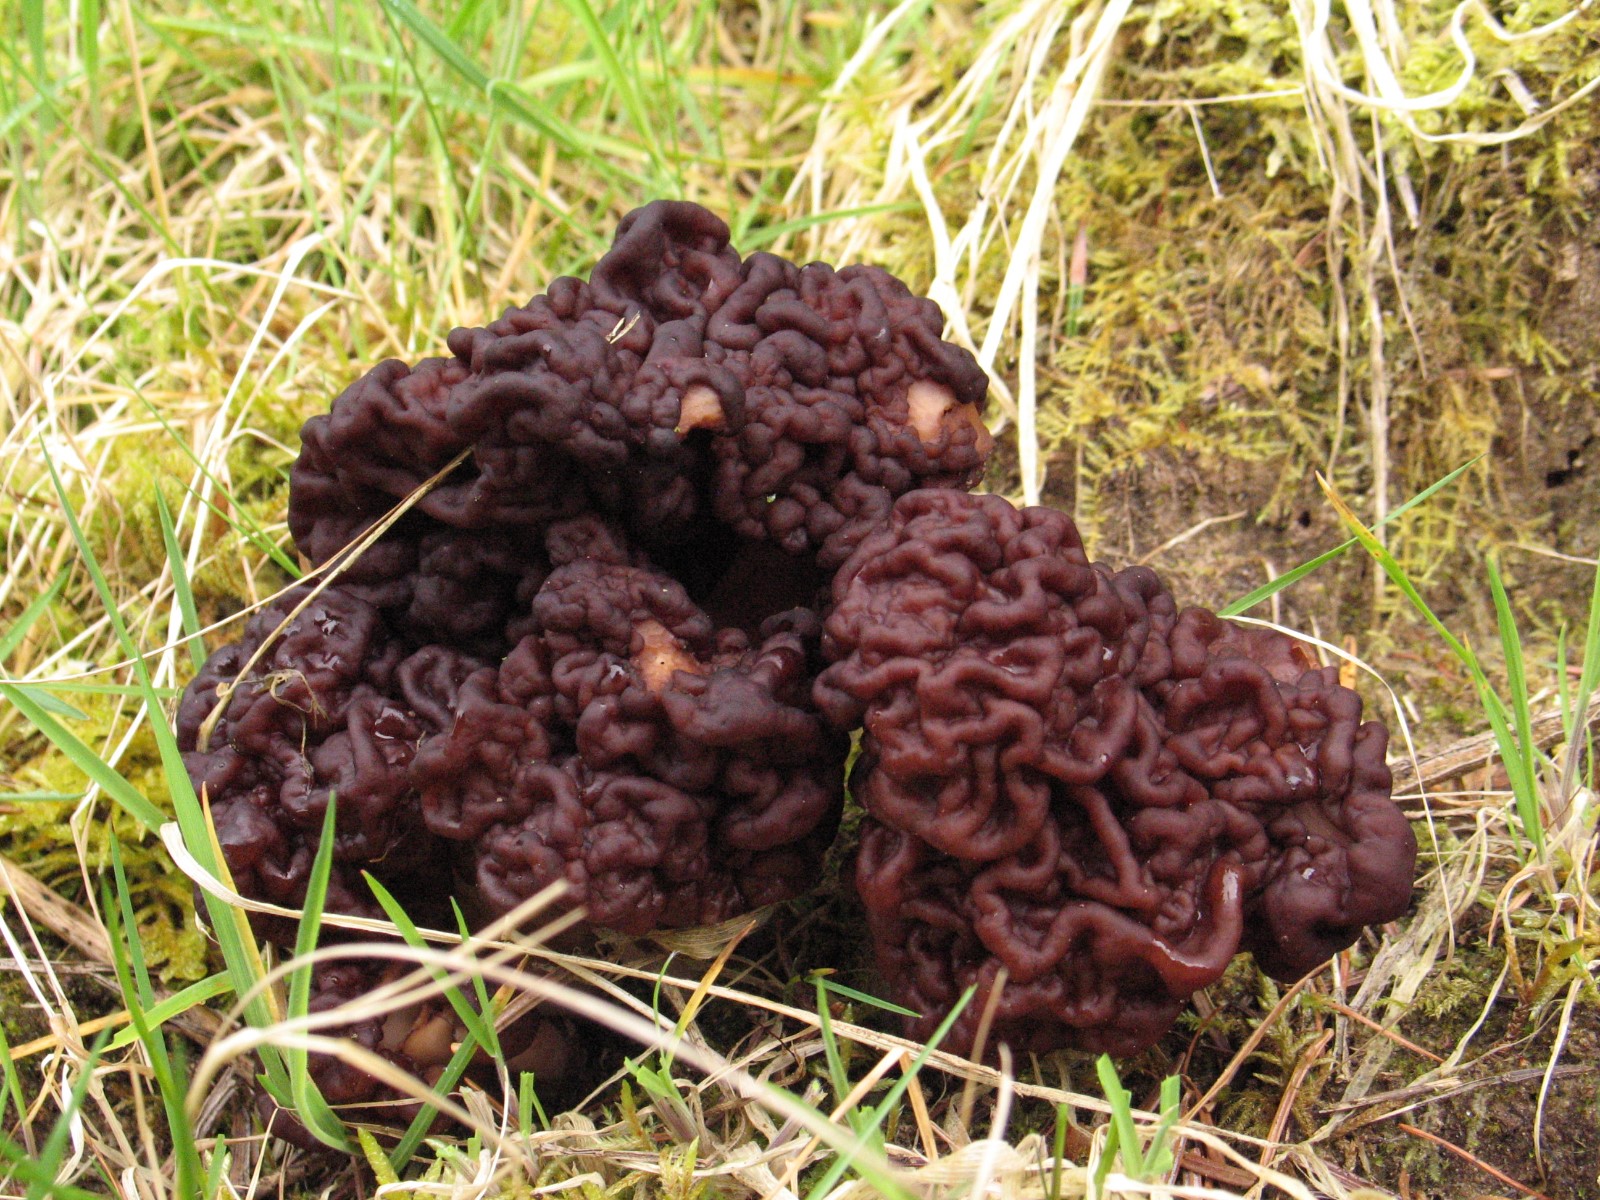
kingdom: Fungi
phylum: Ascomycota
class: Pezizomycetes
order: Pezizales
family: Discinaceae
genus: Gyromitra
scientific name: Gyromitra esculenta
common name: ægte stenmorkel
